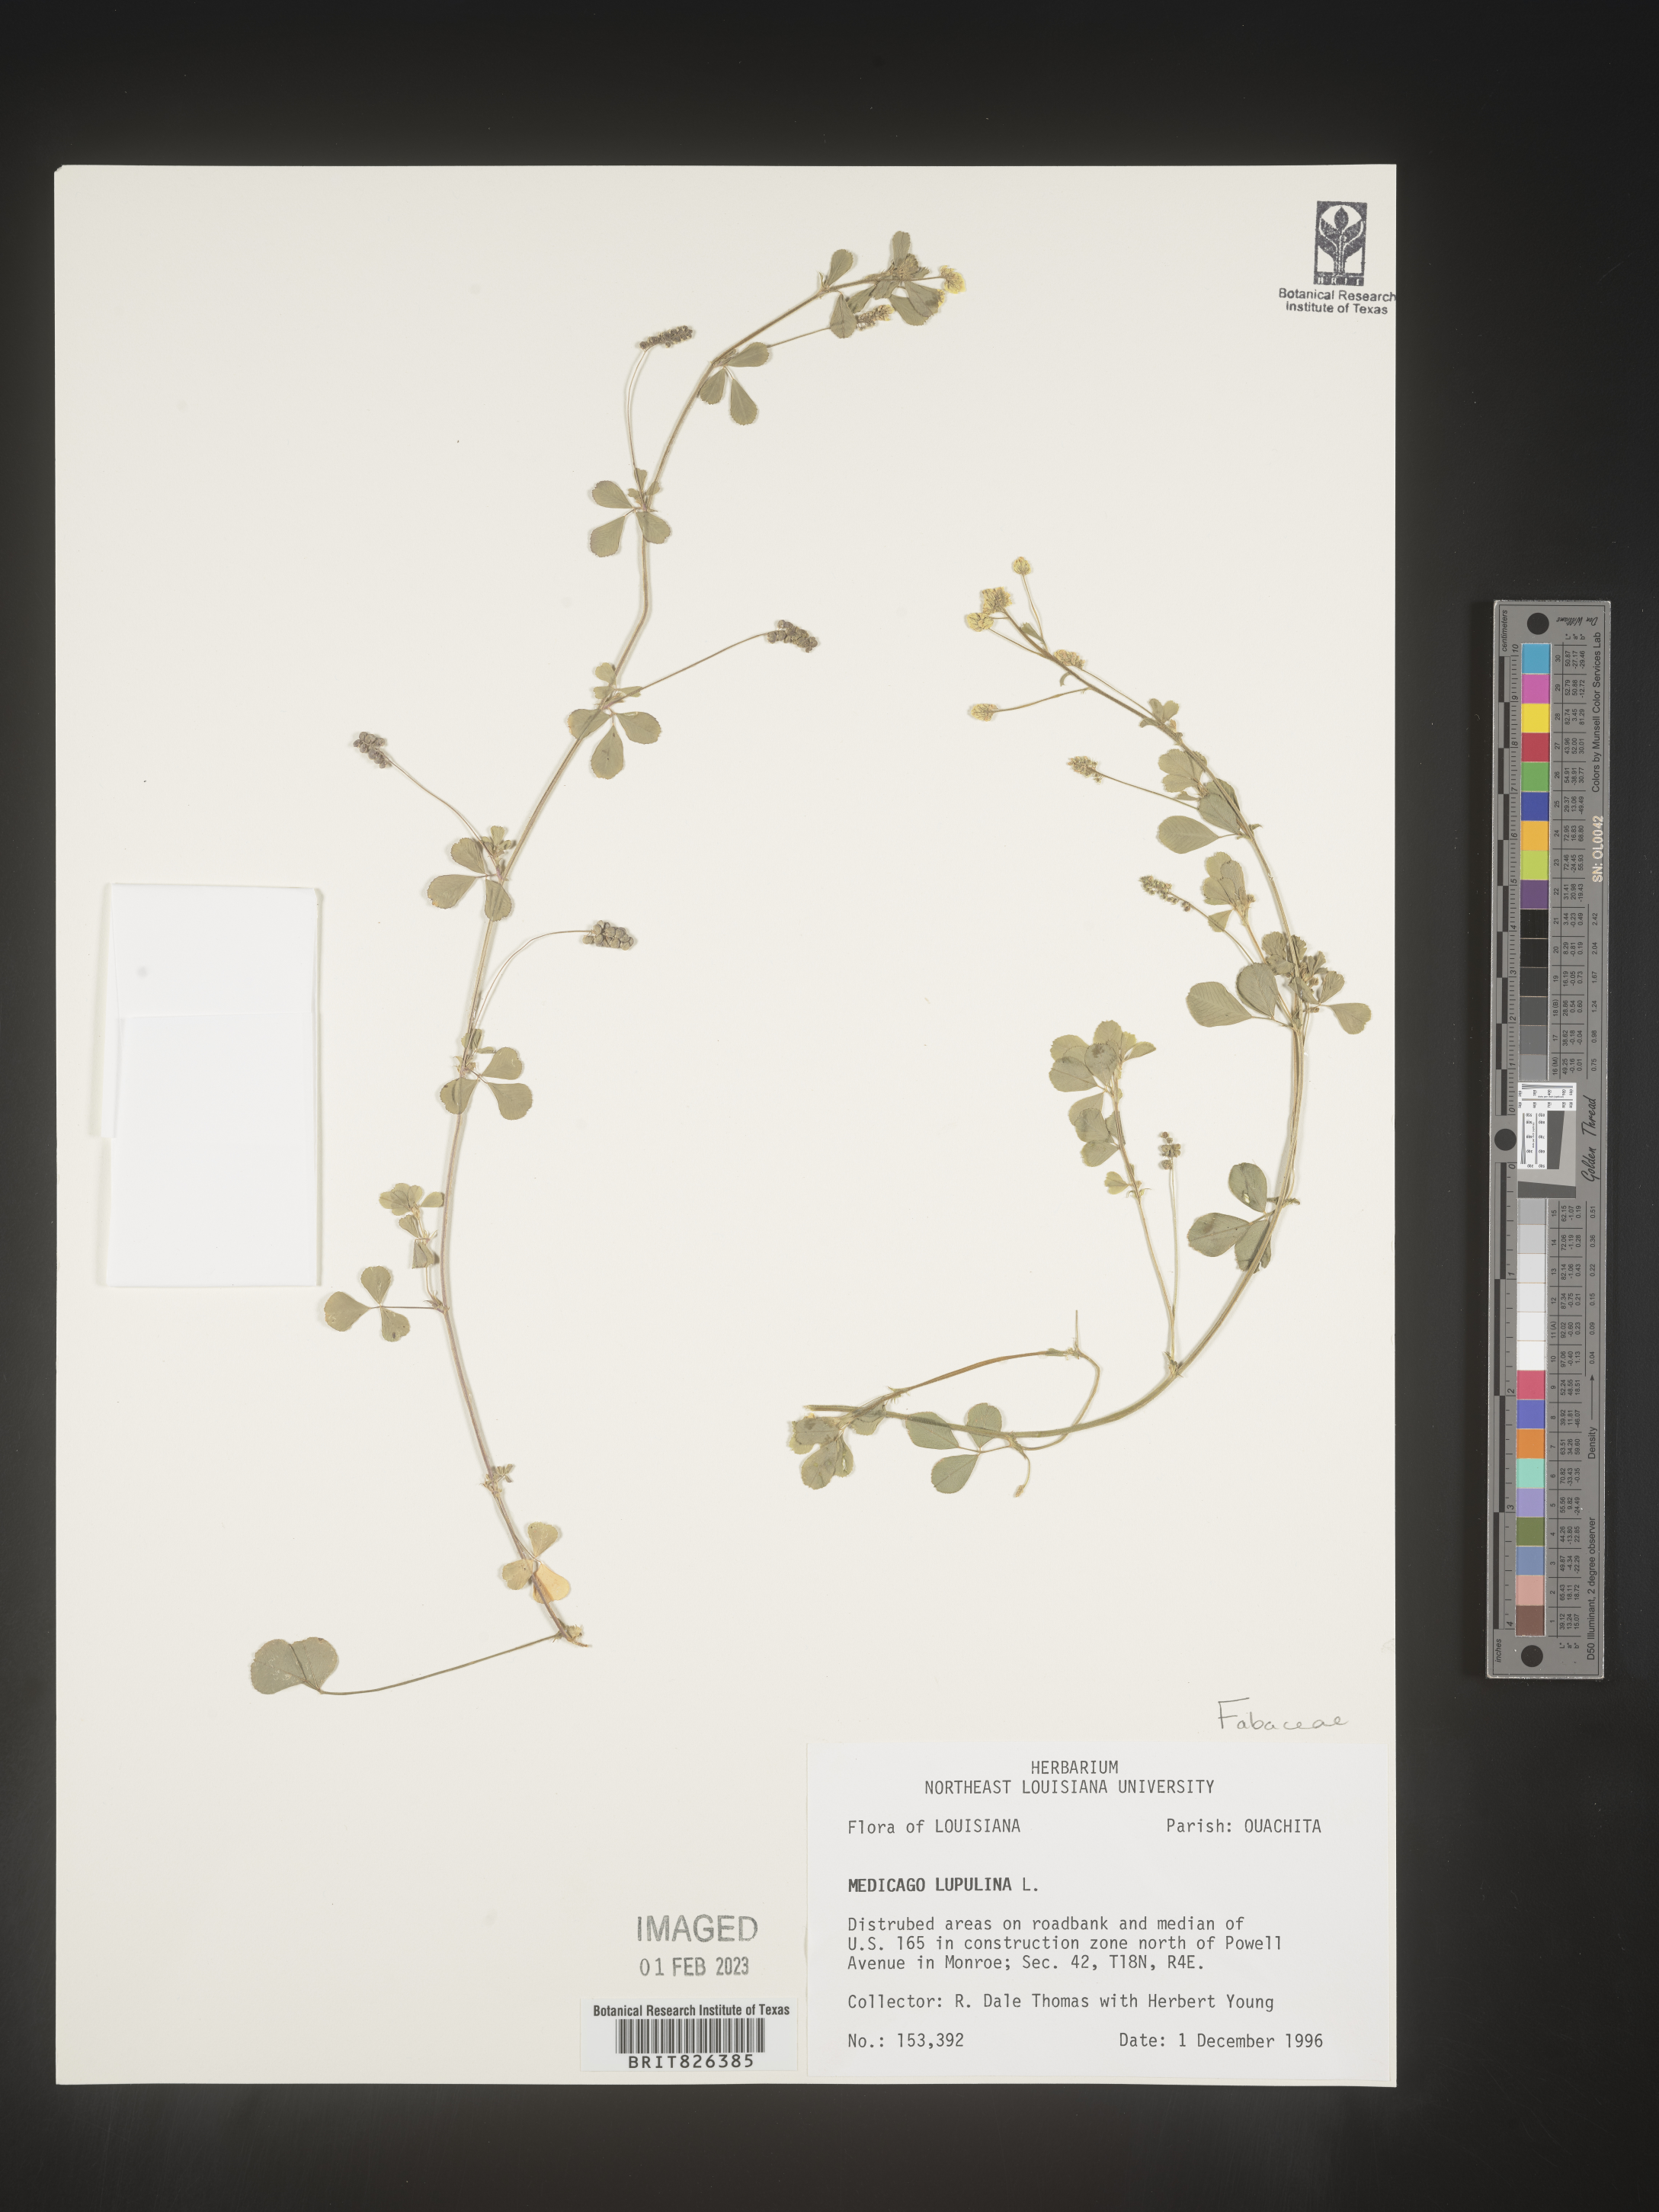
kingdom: Plantae
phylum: Tracheophyta
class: Magnoliopsida
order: Fabales
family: Fabaceae
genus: Medicago
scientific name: Medicago lupulina
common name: Black medick
